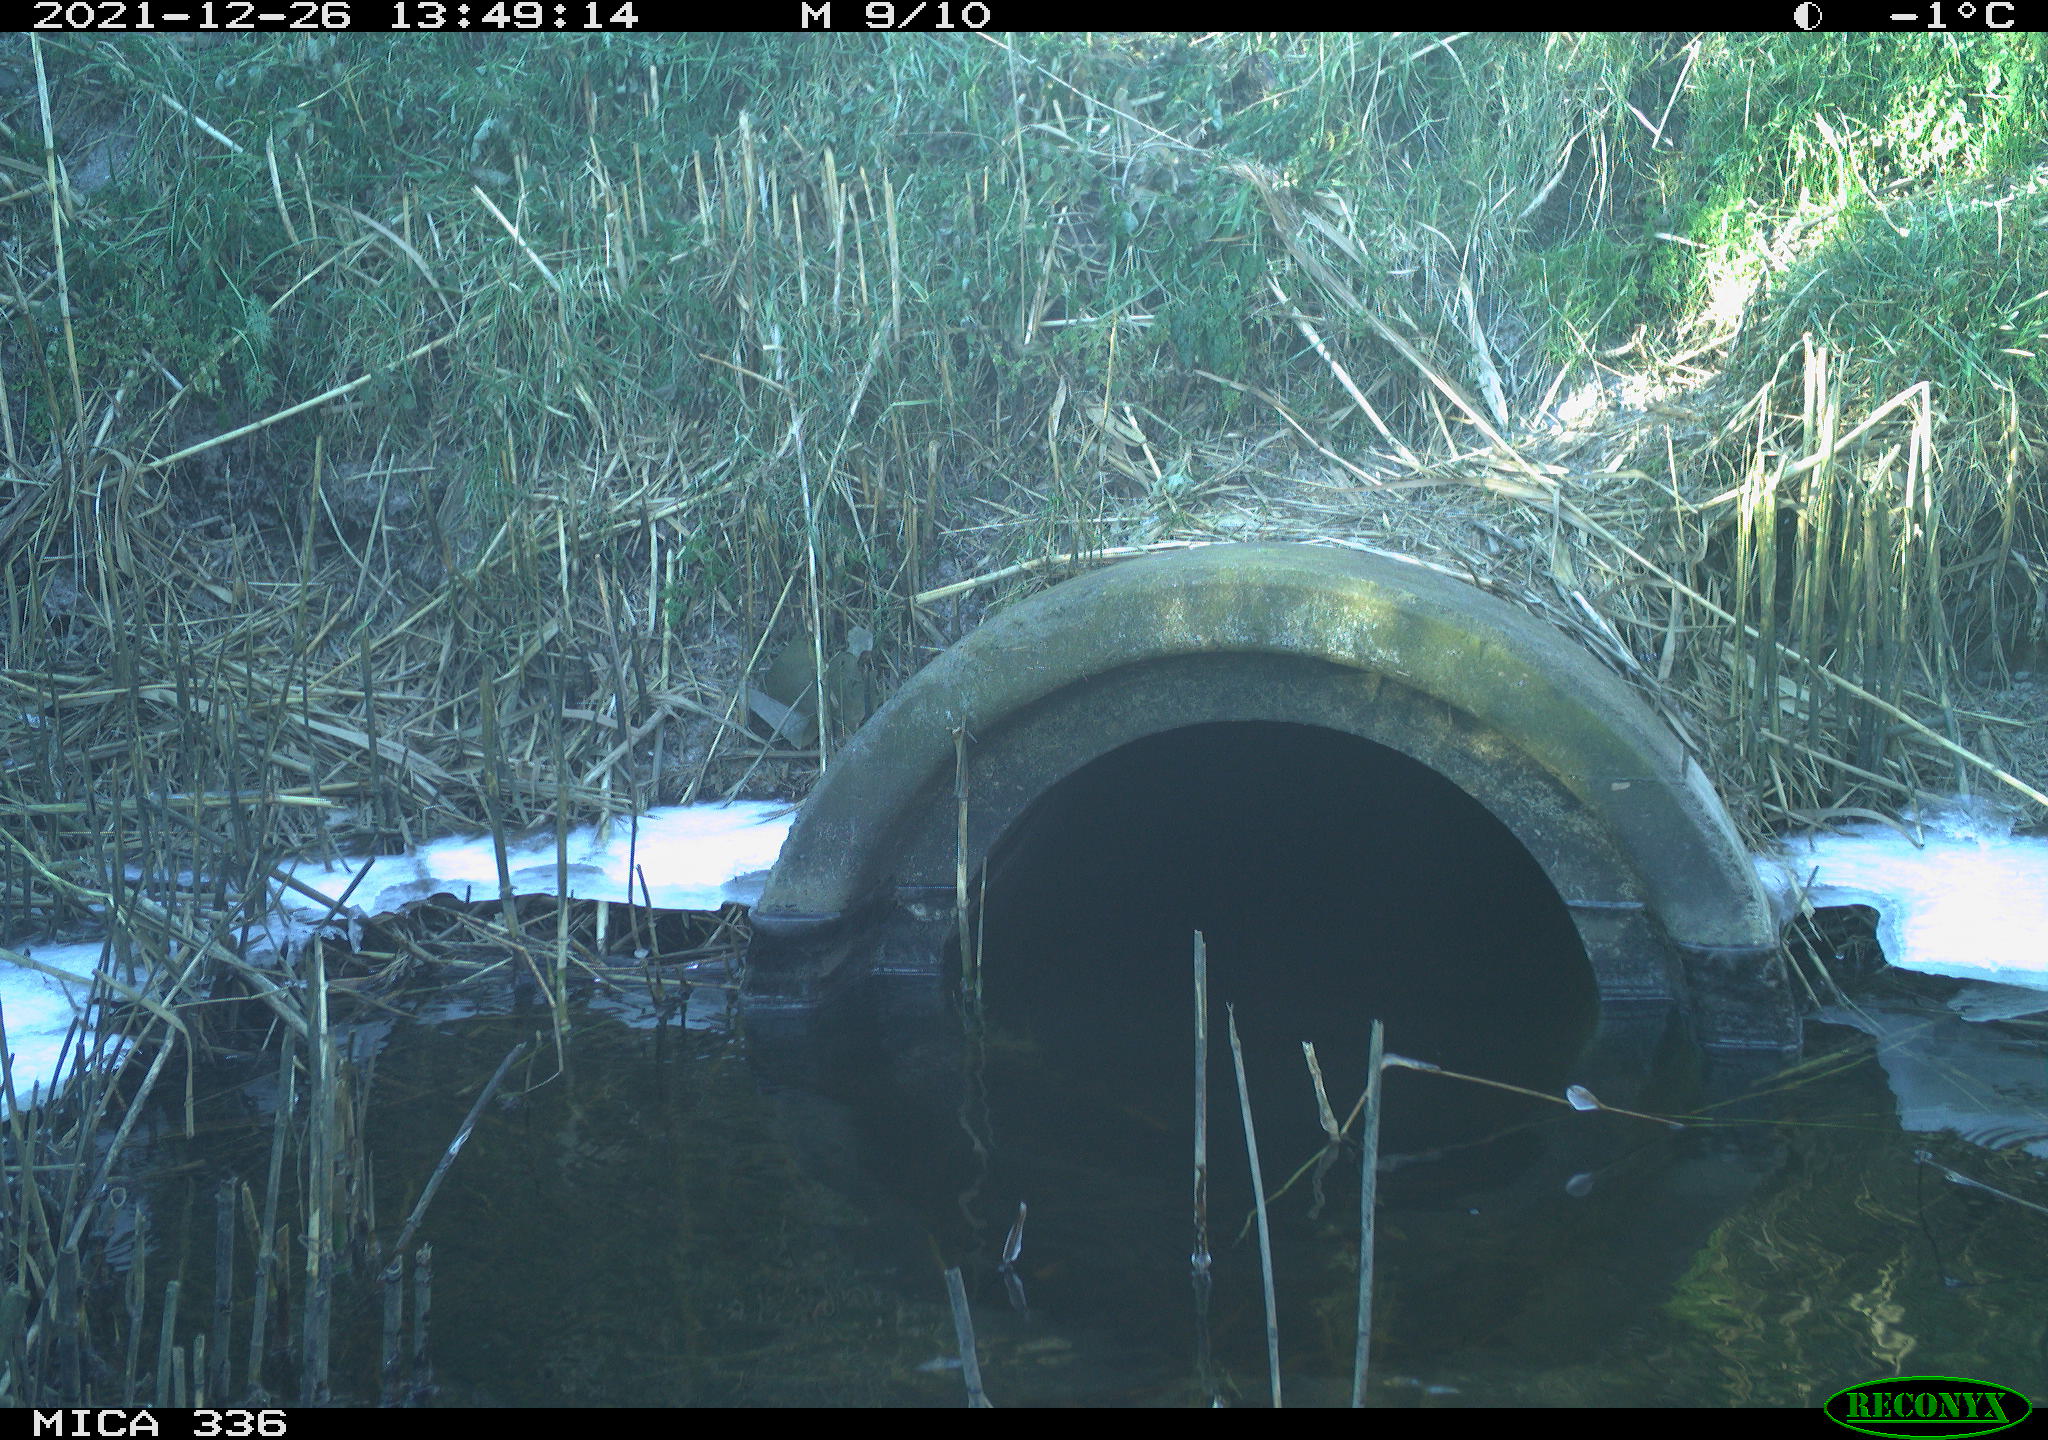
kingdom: Animalia
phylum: Chordata
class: Aves
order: Gruiformes
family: Rallidae
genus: Gallinula
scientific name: Gallinula chloropus
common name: Common moorhen
